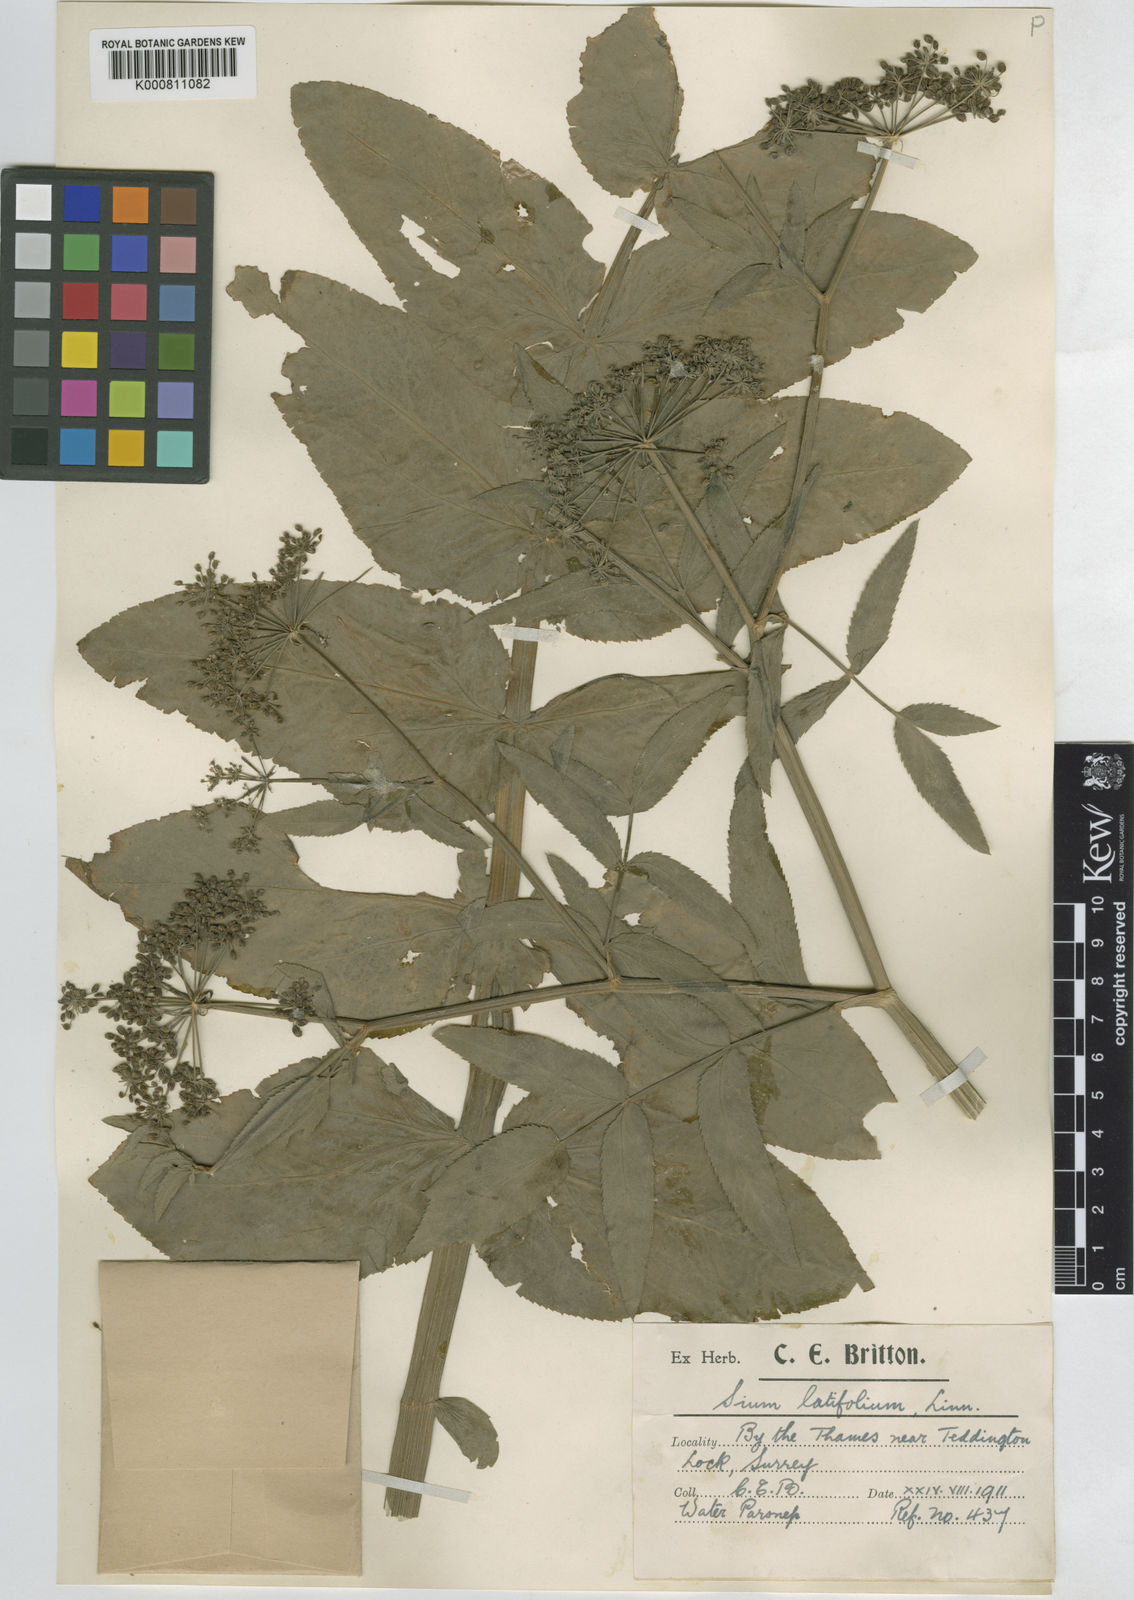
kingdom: Plantae
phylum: Tracheophyta
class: Magnoliopsida
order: Apiales
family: Apiaceae
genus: Sium
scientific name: Sium latifolium
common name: Greater water-parsnip
